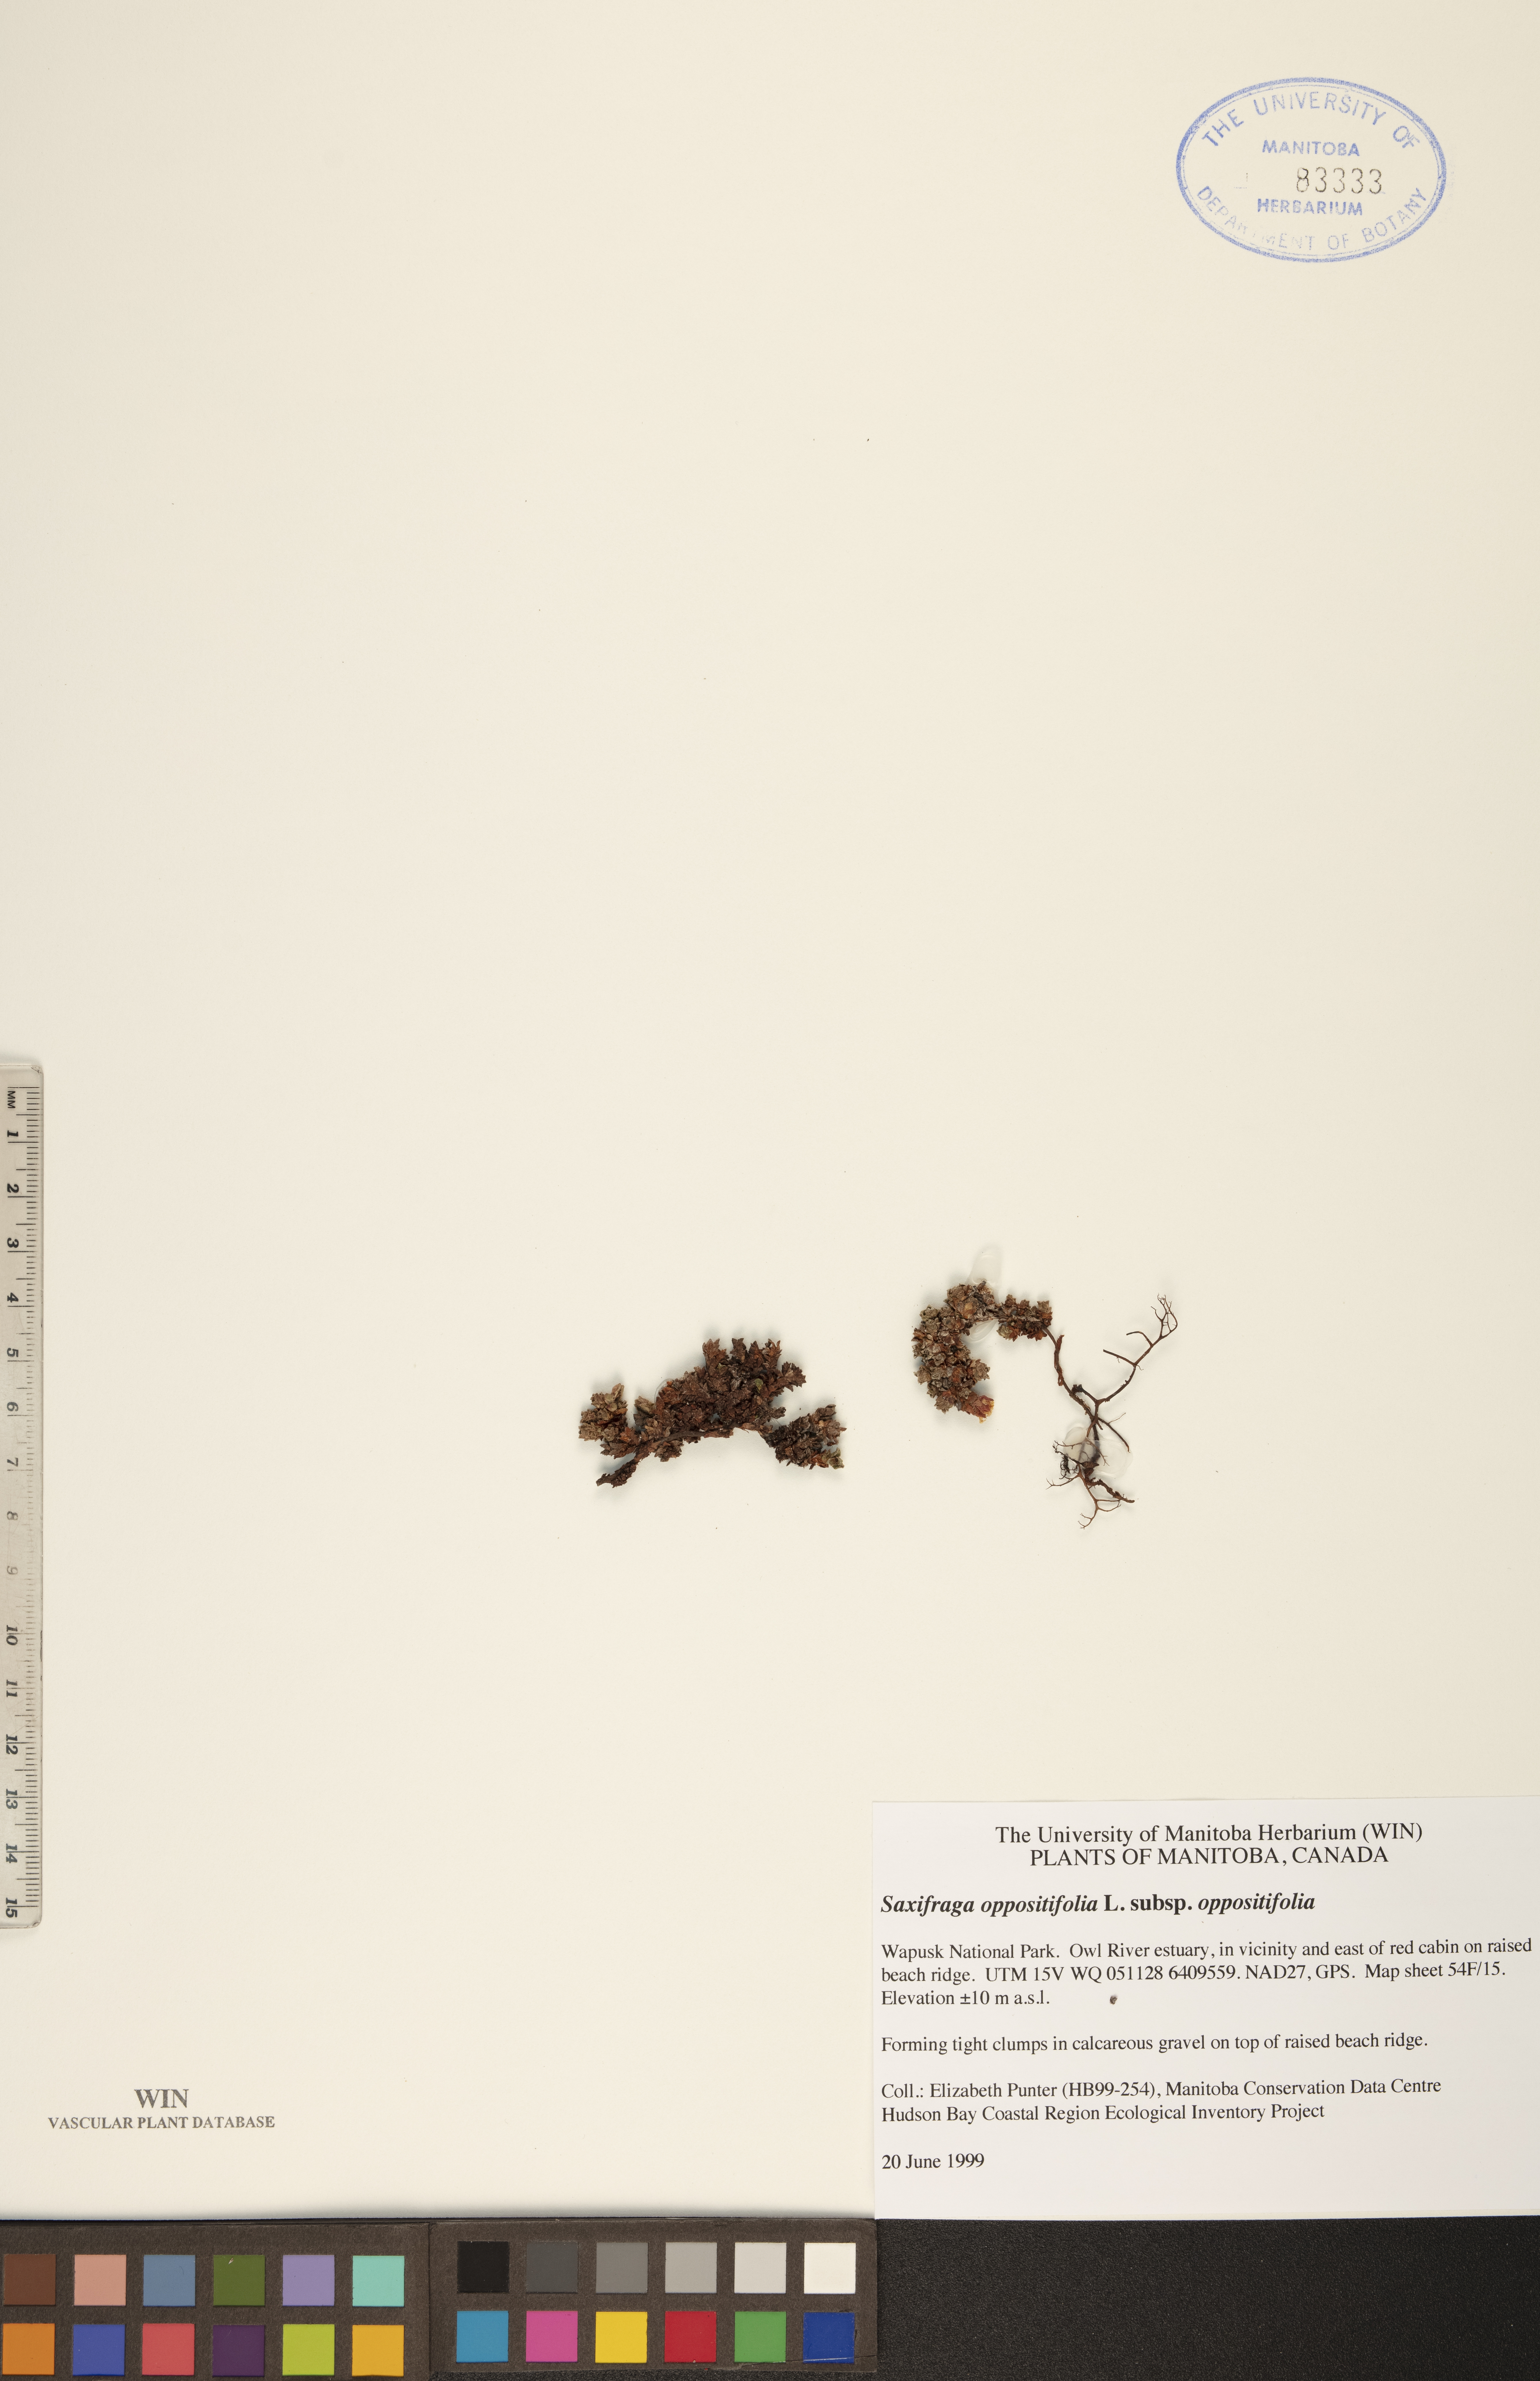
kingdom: Plantae
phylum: Tracheophyta
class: Magnoliopsida
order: Saxifragales
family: Saxifragaceae
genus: Saxifraga
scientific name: Saxifraga oppositifolia
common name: Purple saxifrage
